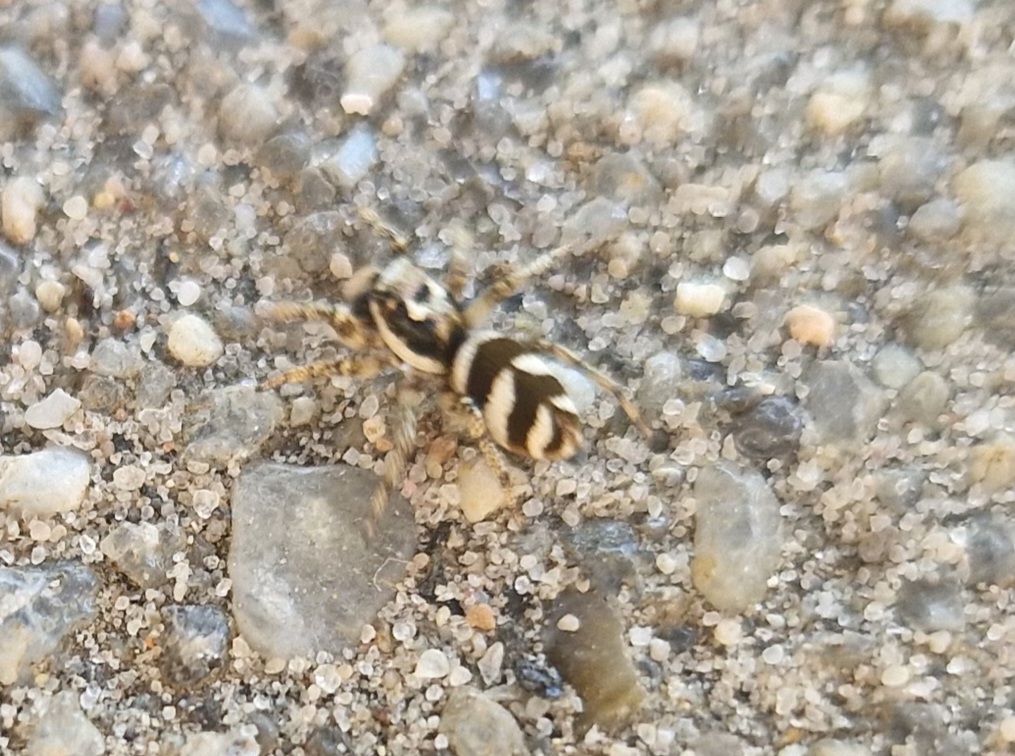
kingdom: Animalia
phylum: Arthropoda
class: Arachnida
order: Araneae
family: Salticidae
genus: Salticus
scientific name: Salticus scenicus
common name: Almindelig zebraedderkop
